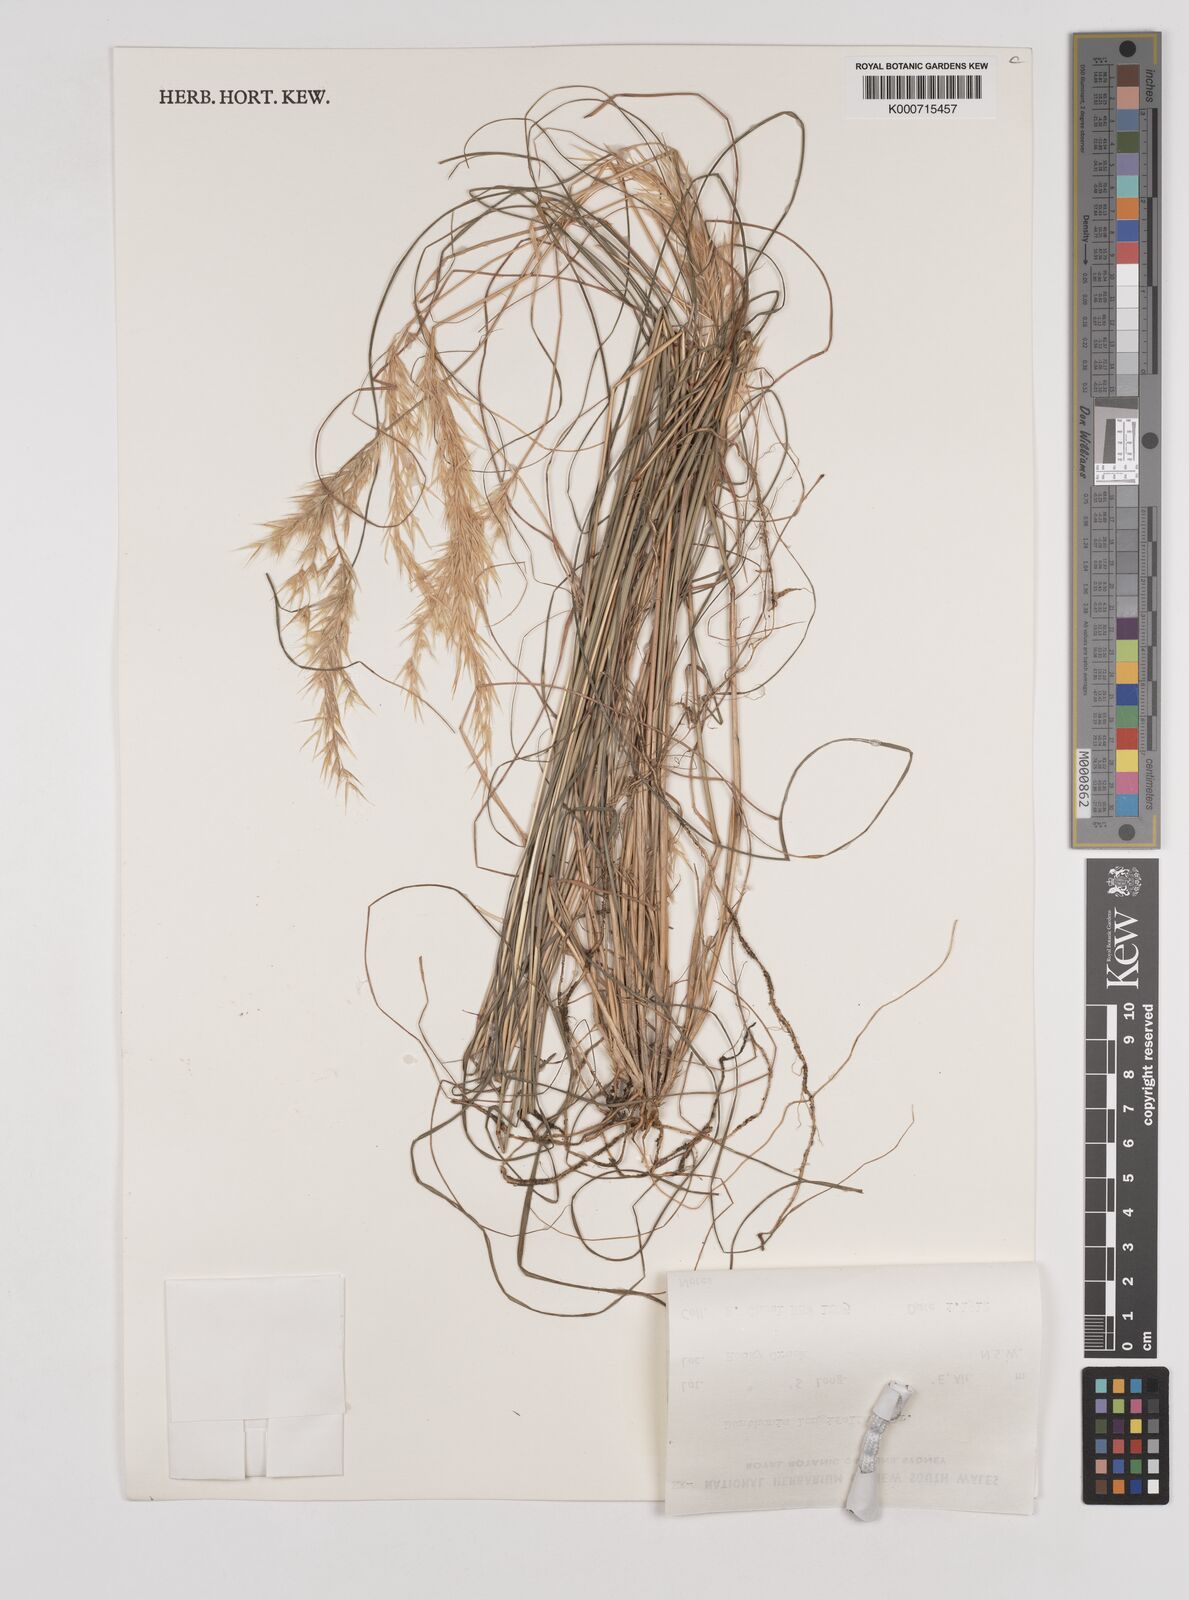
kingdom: Plantae
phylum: Tracheophyta
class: Liliopsida
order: Poales
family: Poaceae
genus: Rytidosperma
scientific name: Rytidosperma longifolium
